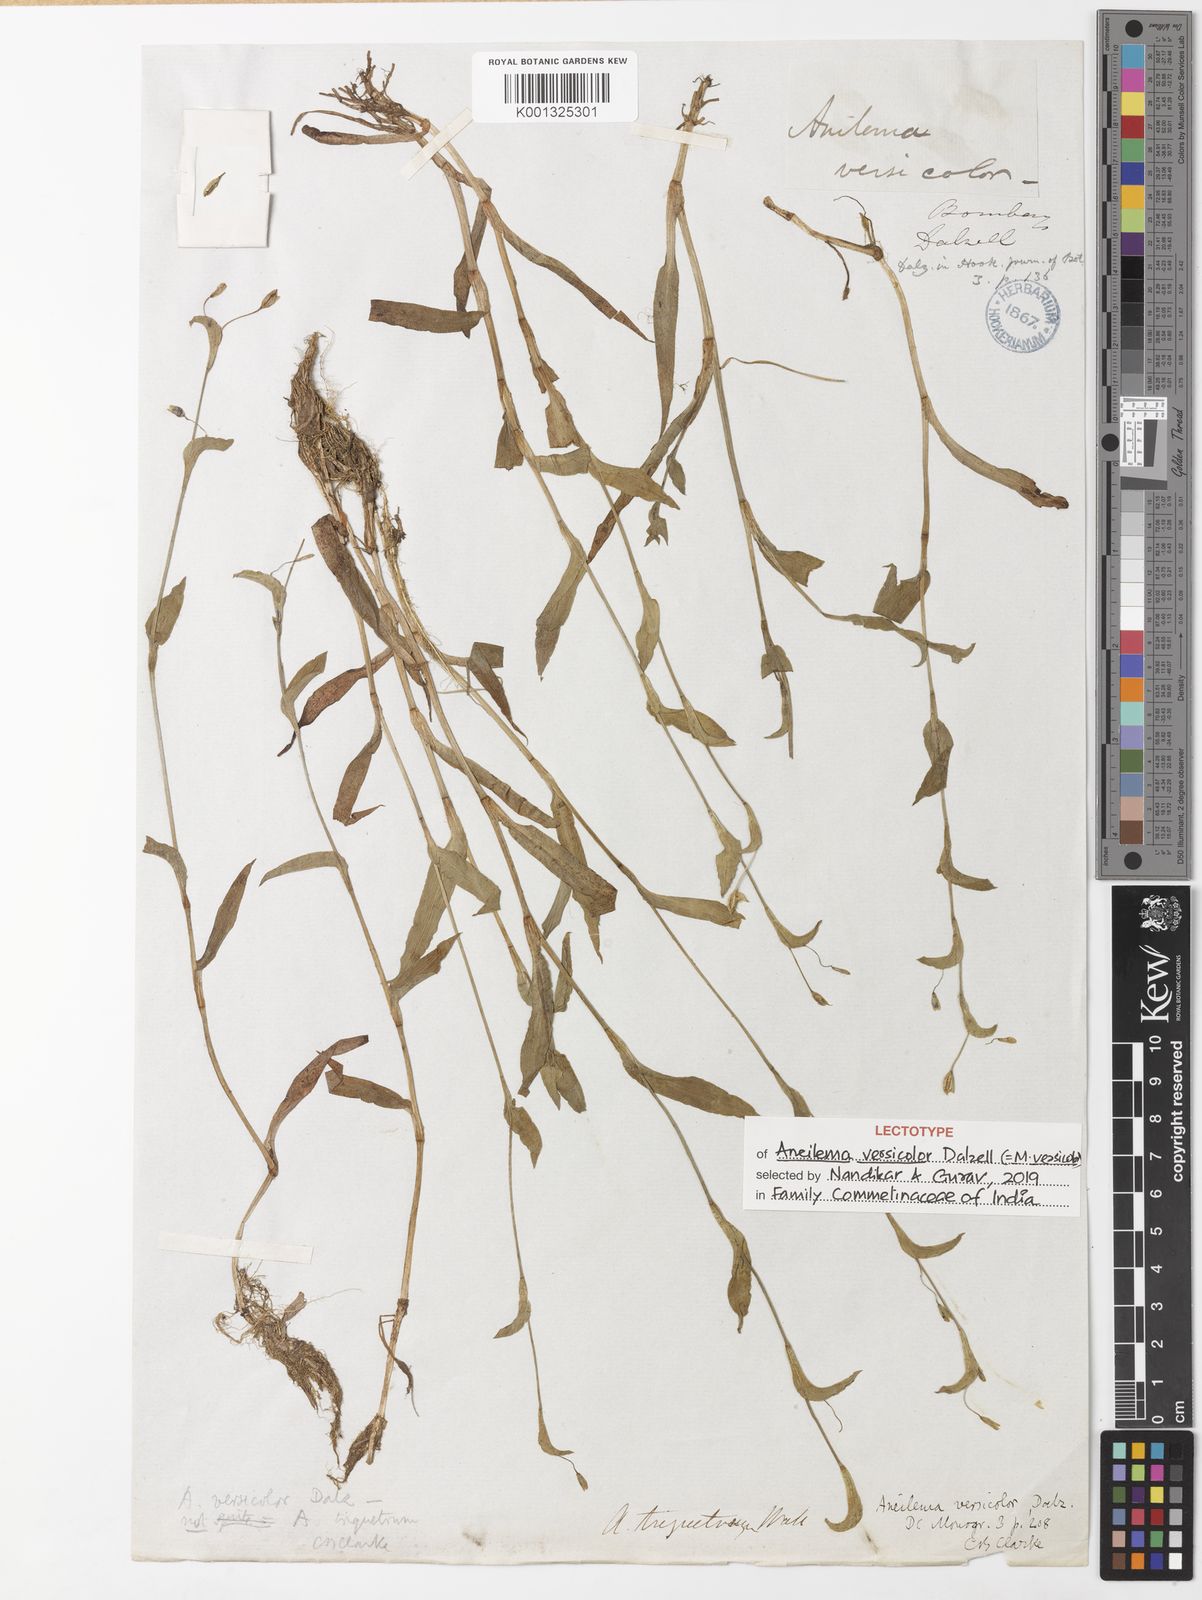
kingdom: Plantae
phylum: Tracheophyta
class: Liliopsida
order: Commelinales
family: Commelinaceae
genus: Murdannia
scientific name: Murdannia
